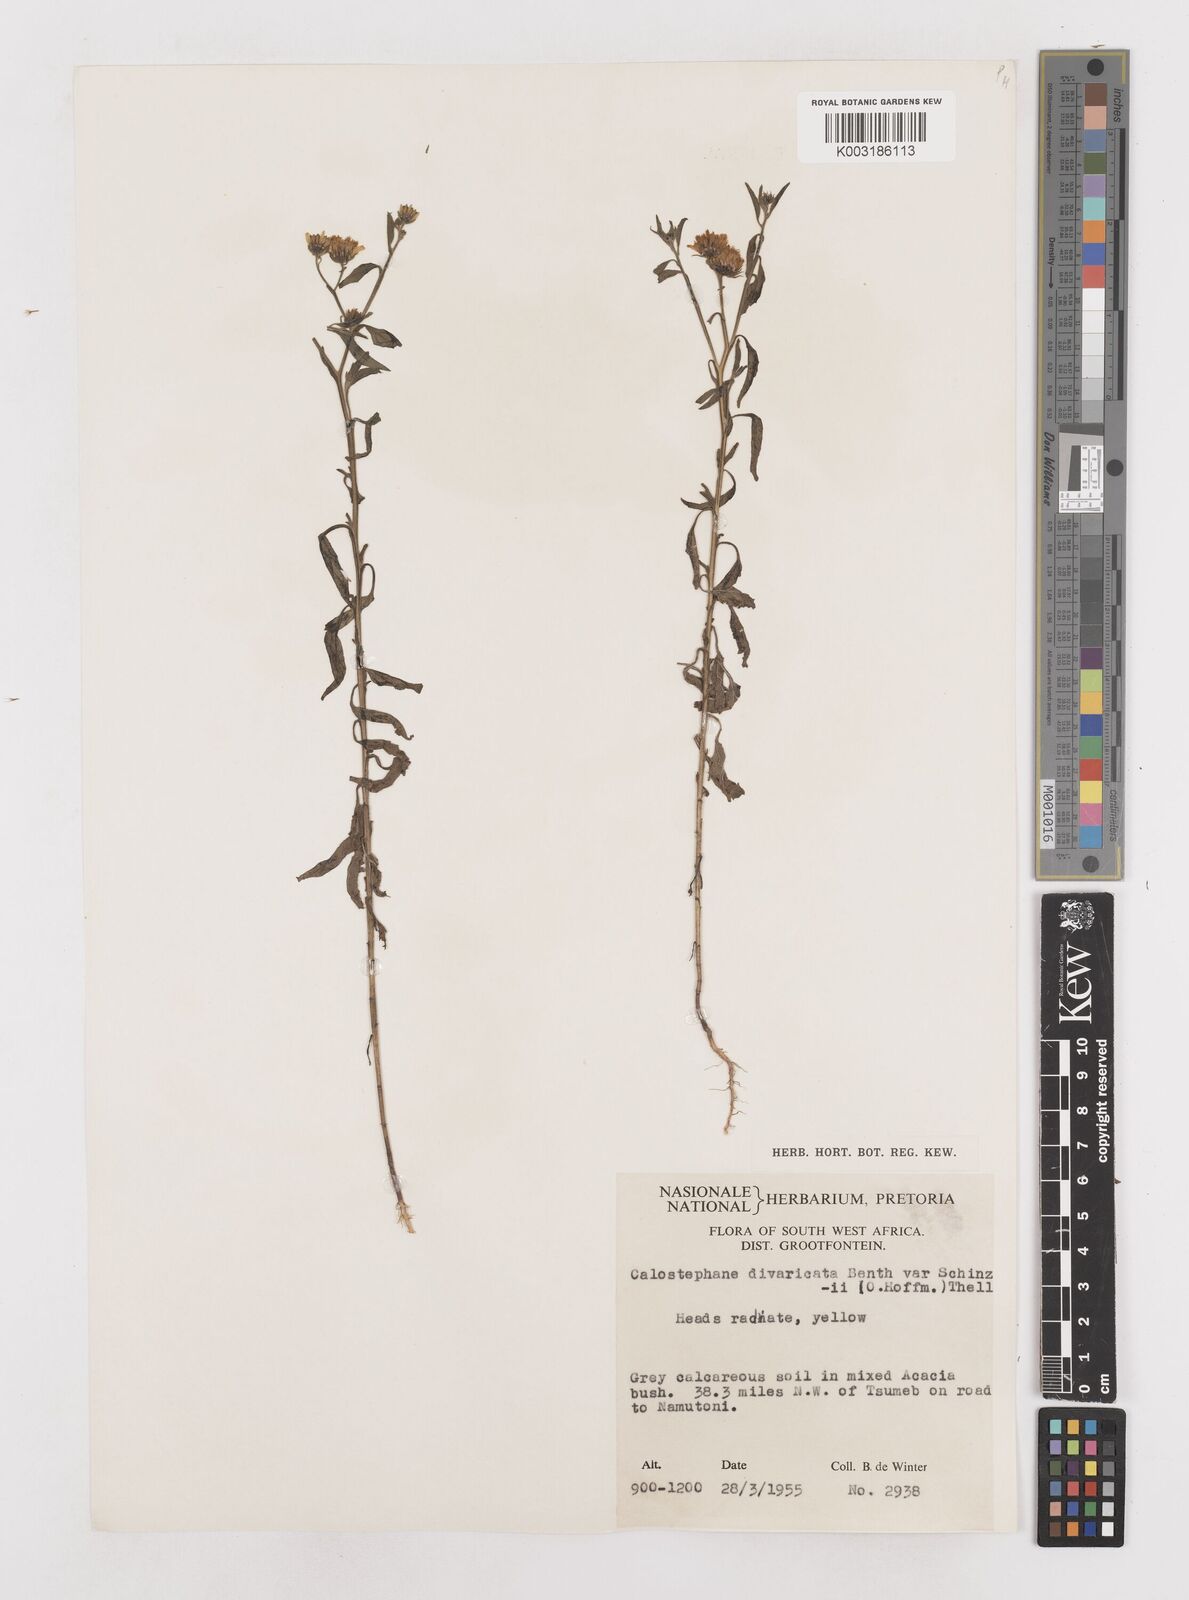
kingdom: Plantae
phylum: Tracheophyta
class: Magnoliopsida
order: Asterales
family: Asteraceae
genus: Calostephane
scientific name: Calostephane divaricata
